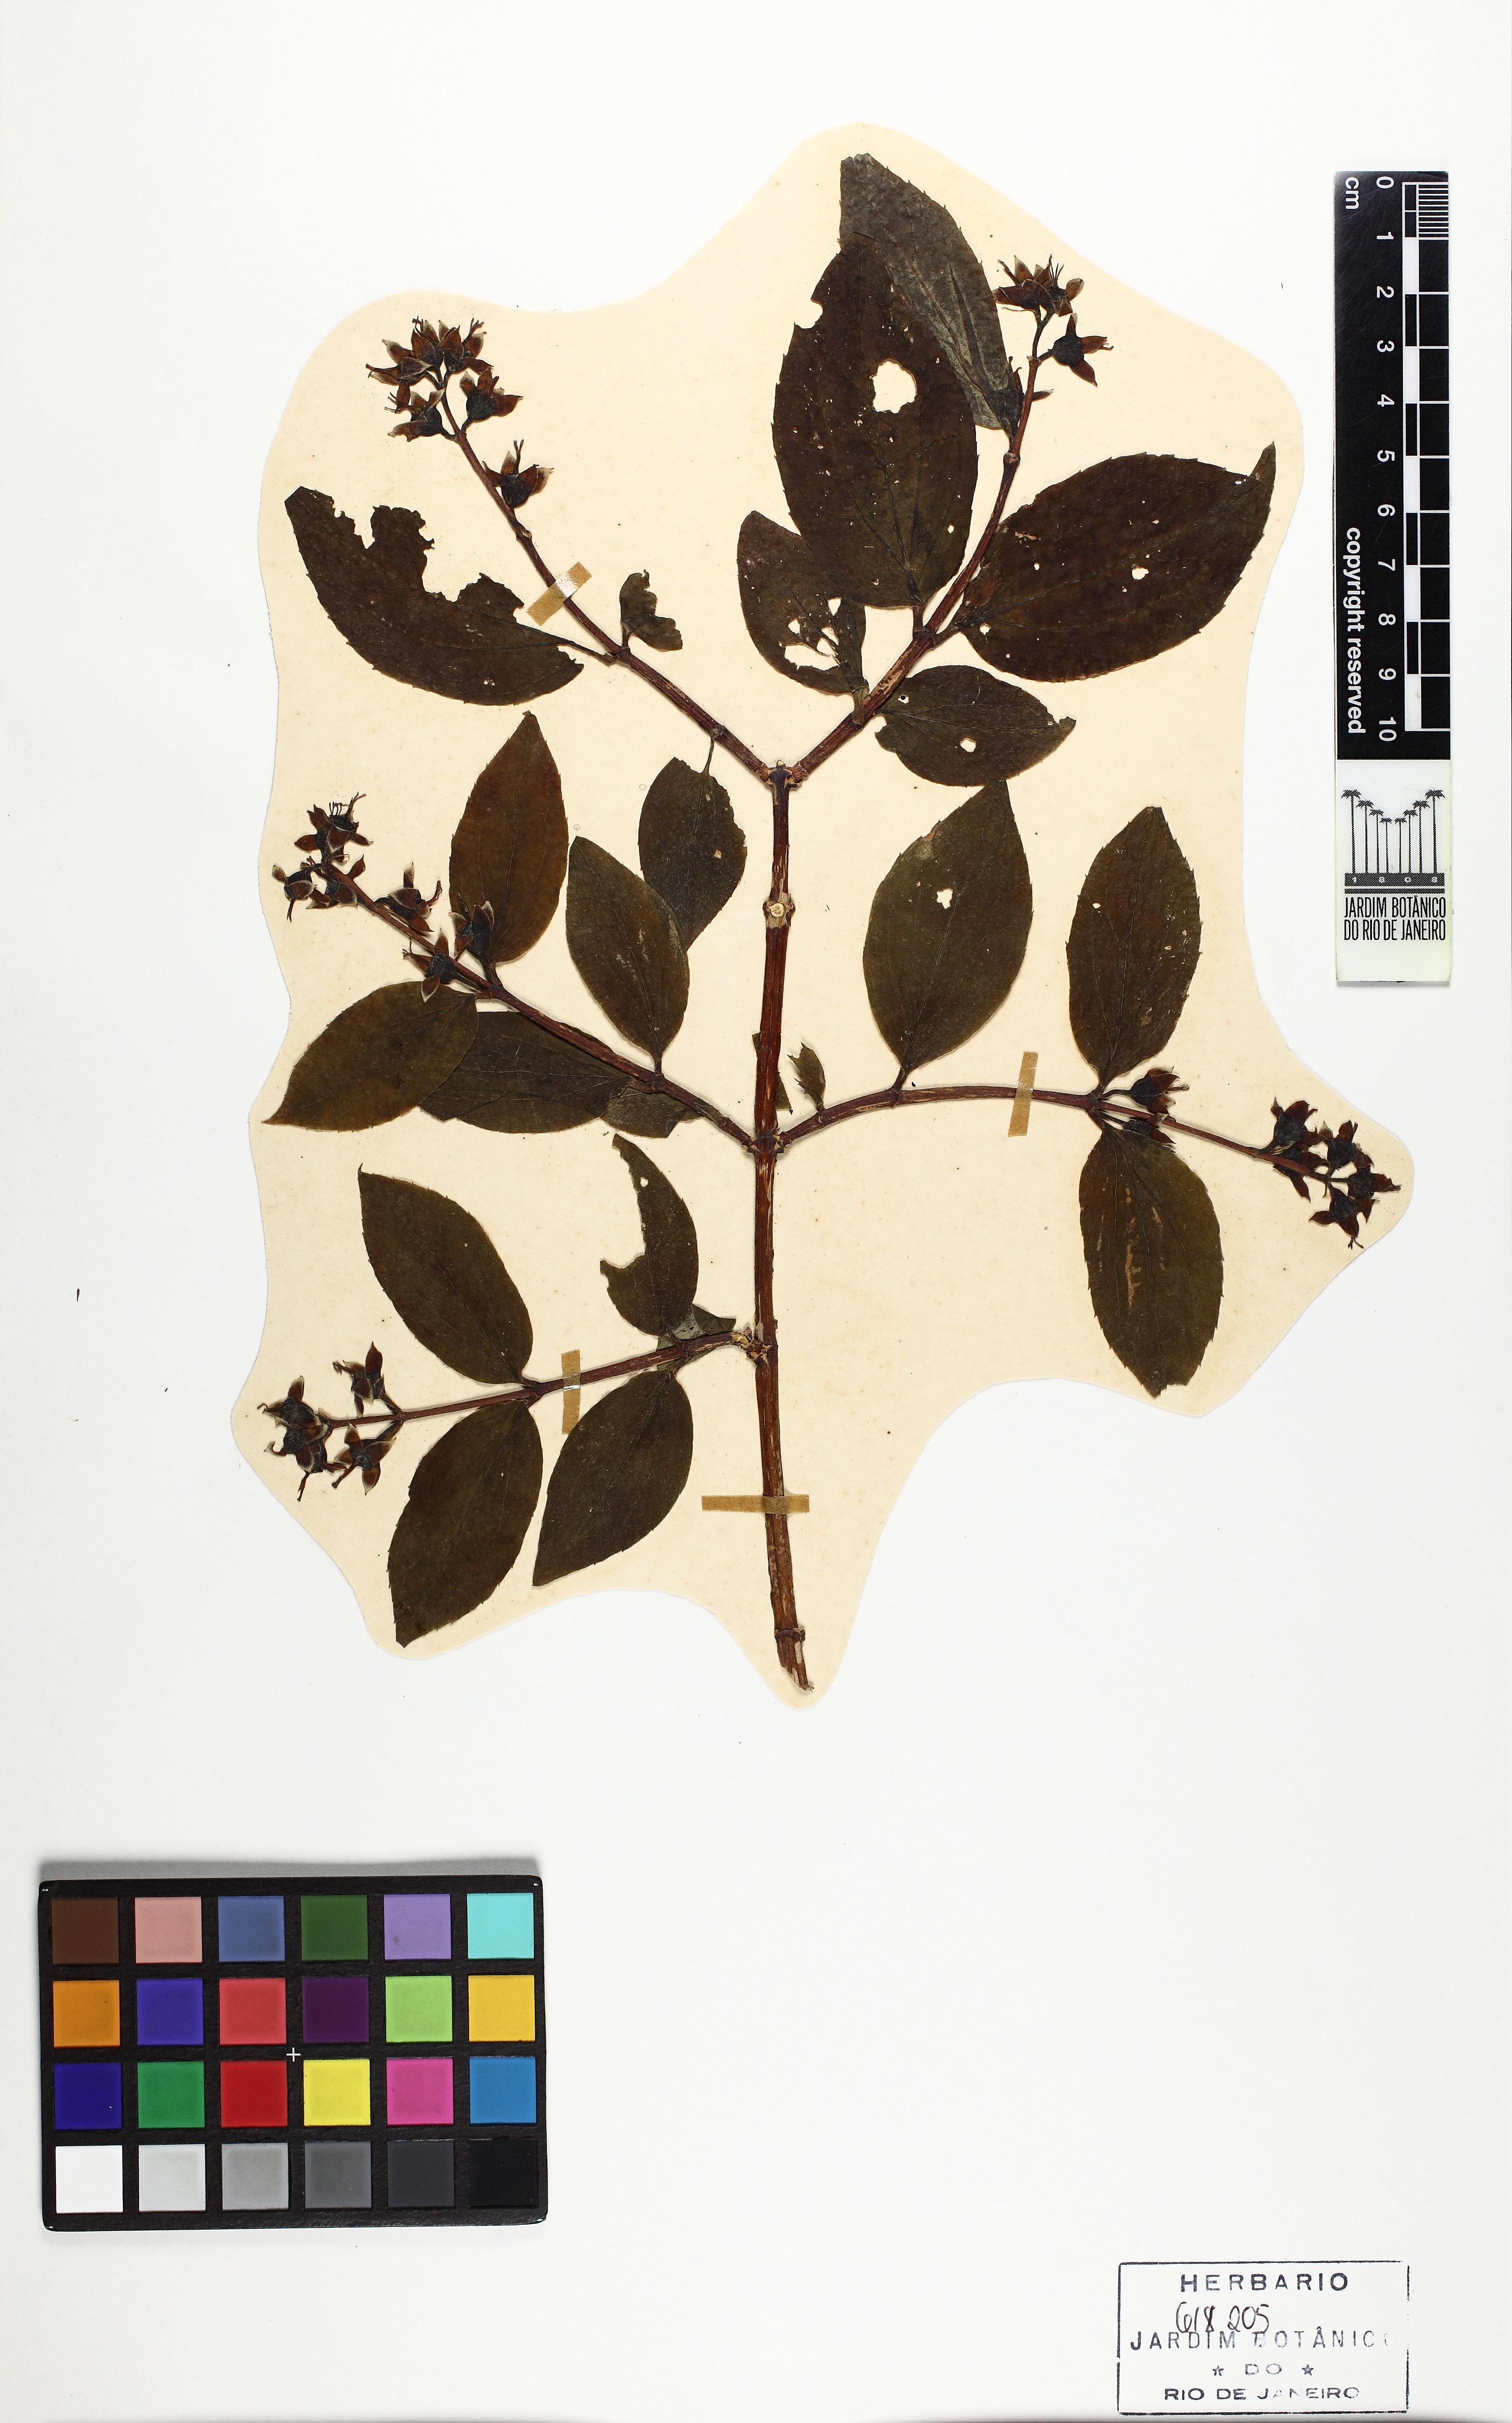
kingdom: Plantae
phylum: Tracheophyta
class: Magnoliopsida
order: Cornales
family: Hydrangeaceae
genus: Philadelphus
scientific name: Philadelphus coronarius
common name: Mock orange
